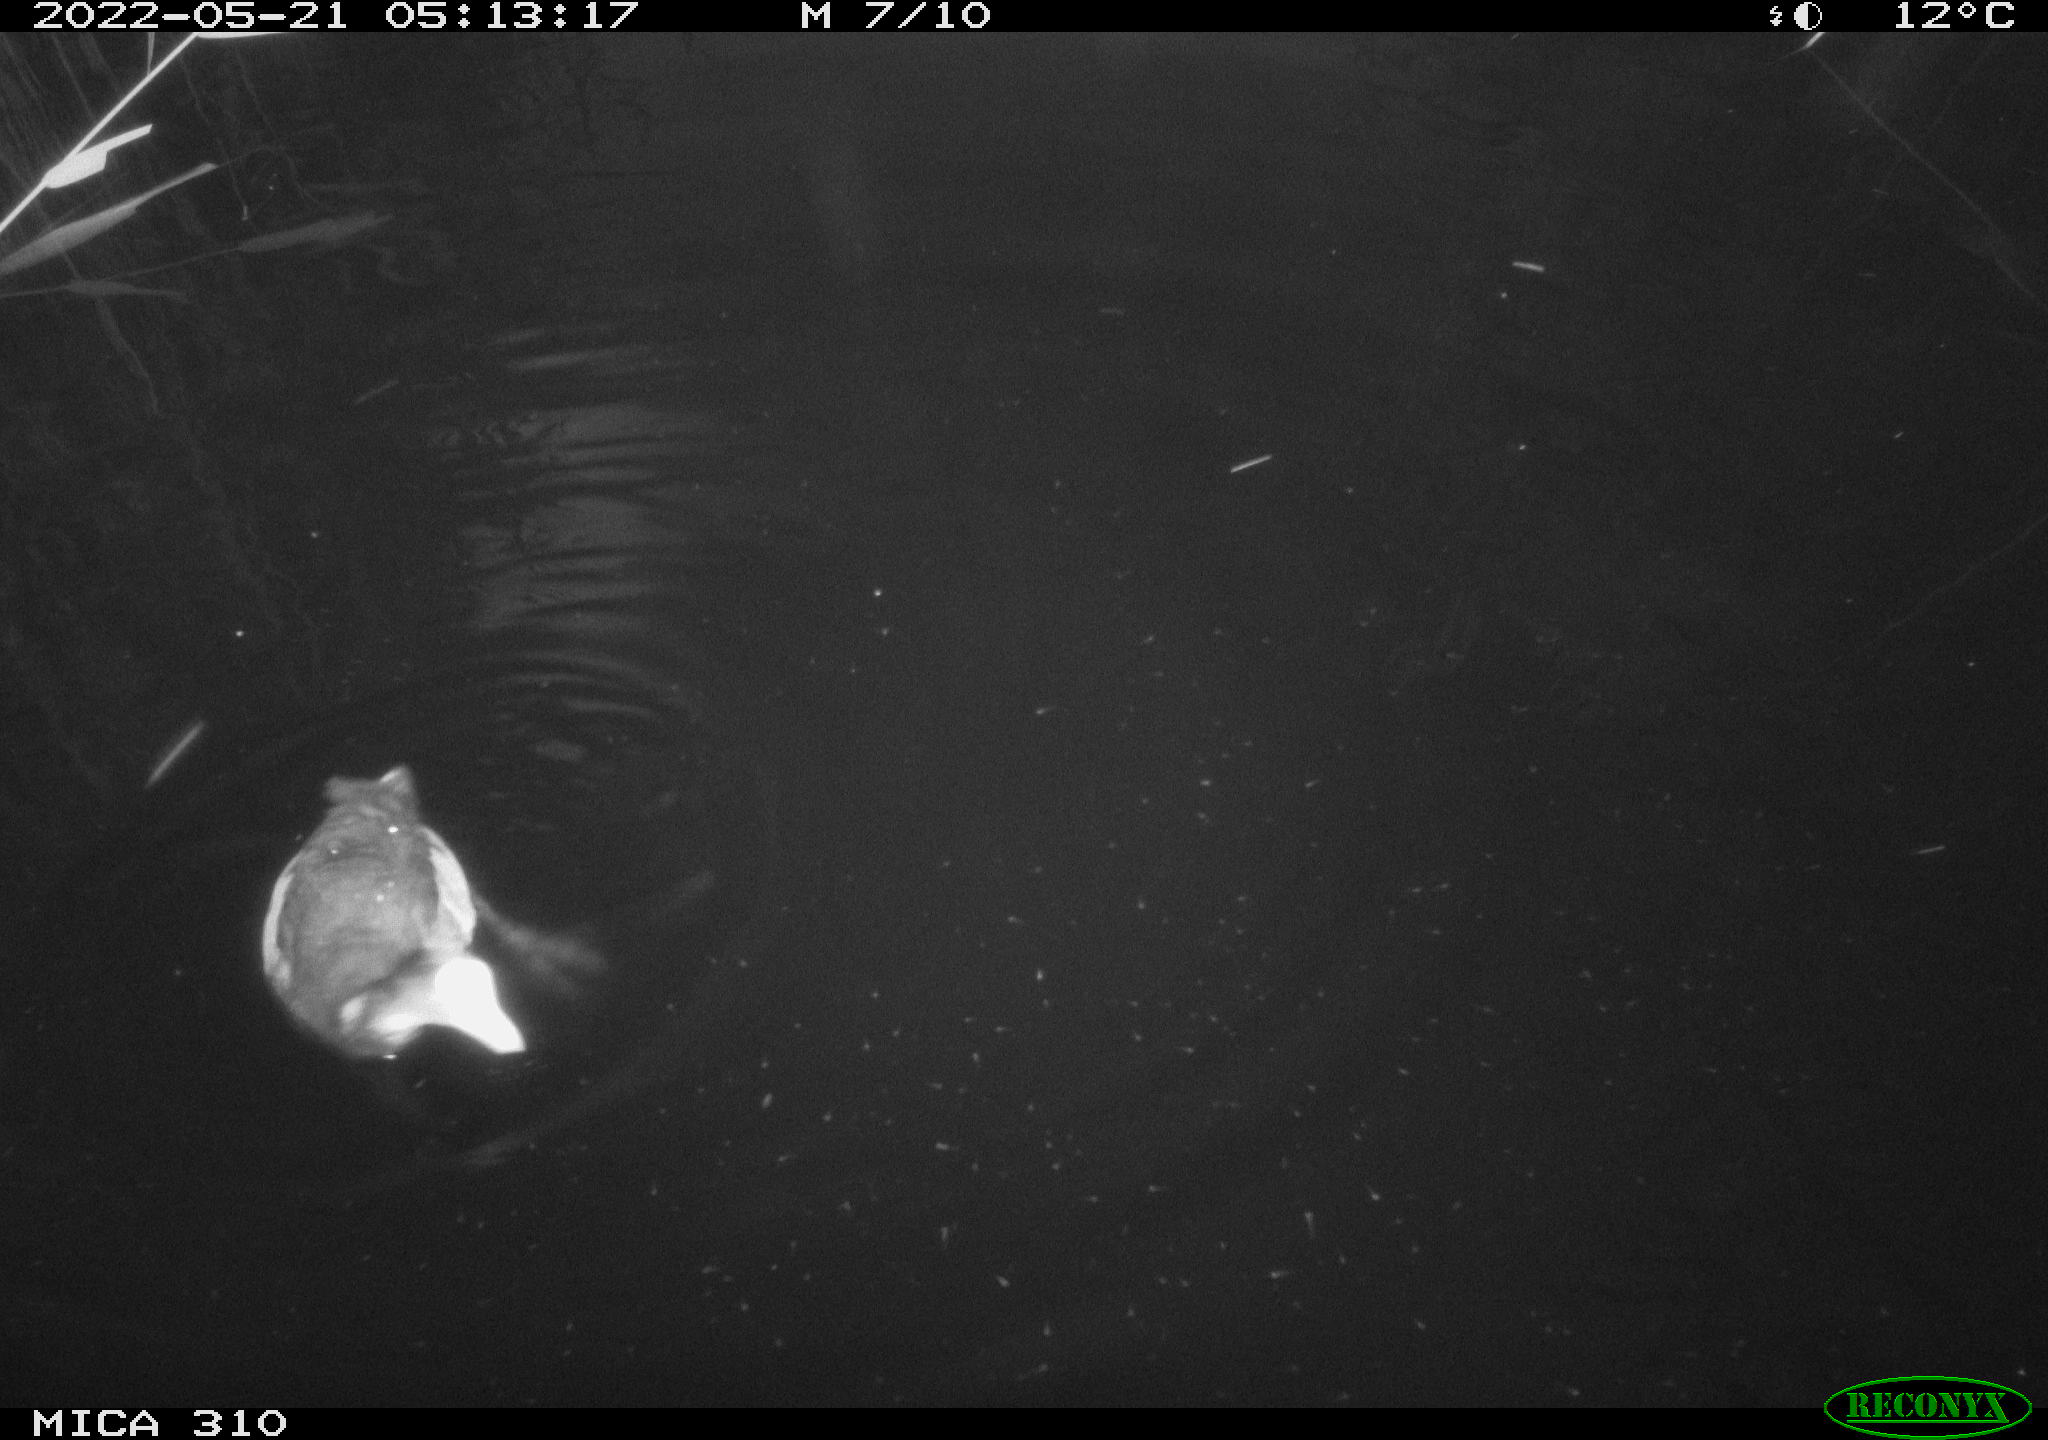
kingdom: Animalia
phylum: Chordata
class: Aves
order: Gruiformes
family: Rallidae
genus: Fulica
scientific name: Fulica atra
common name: Eurasian coot
